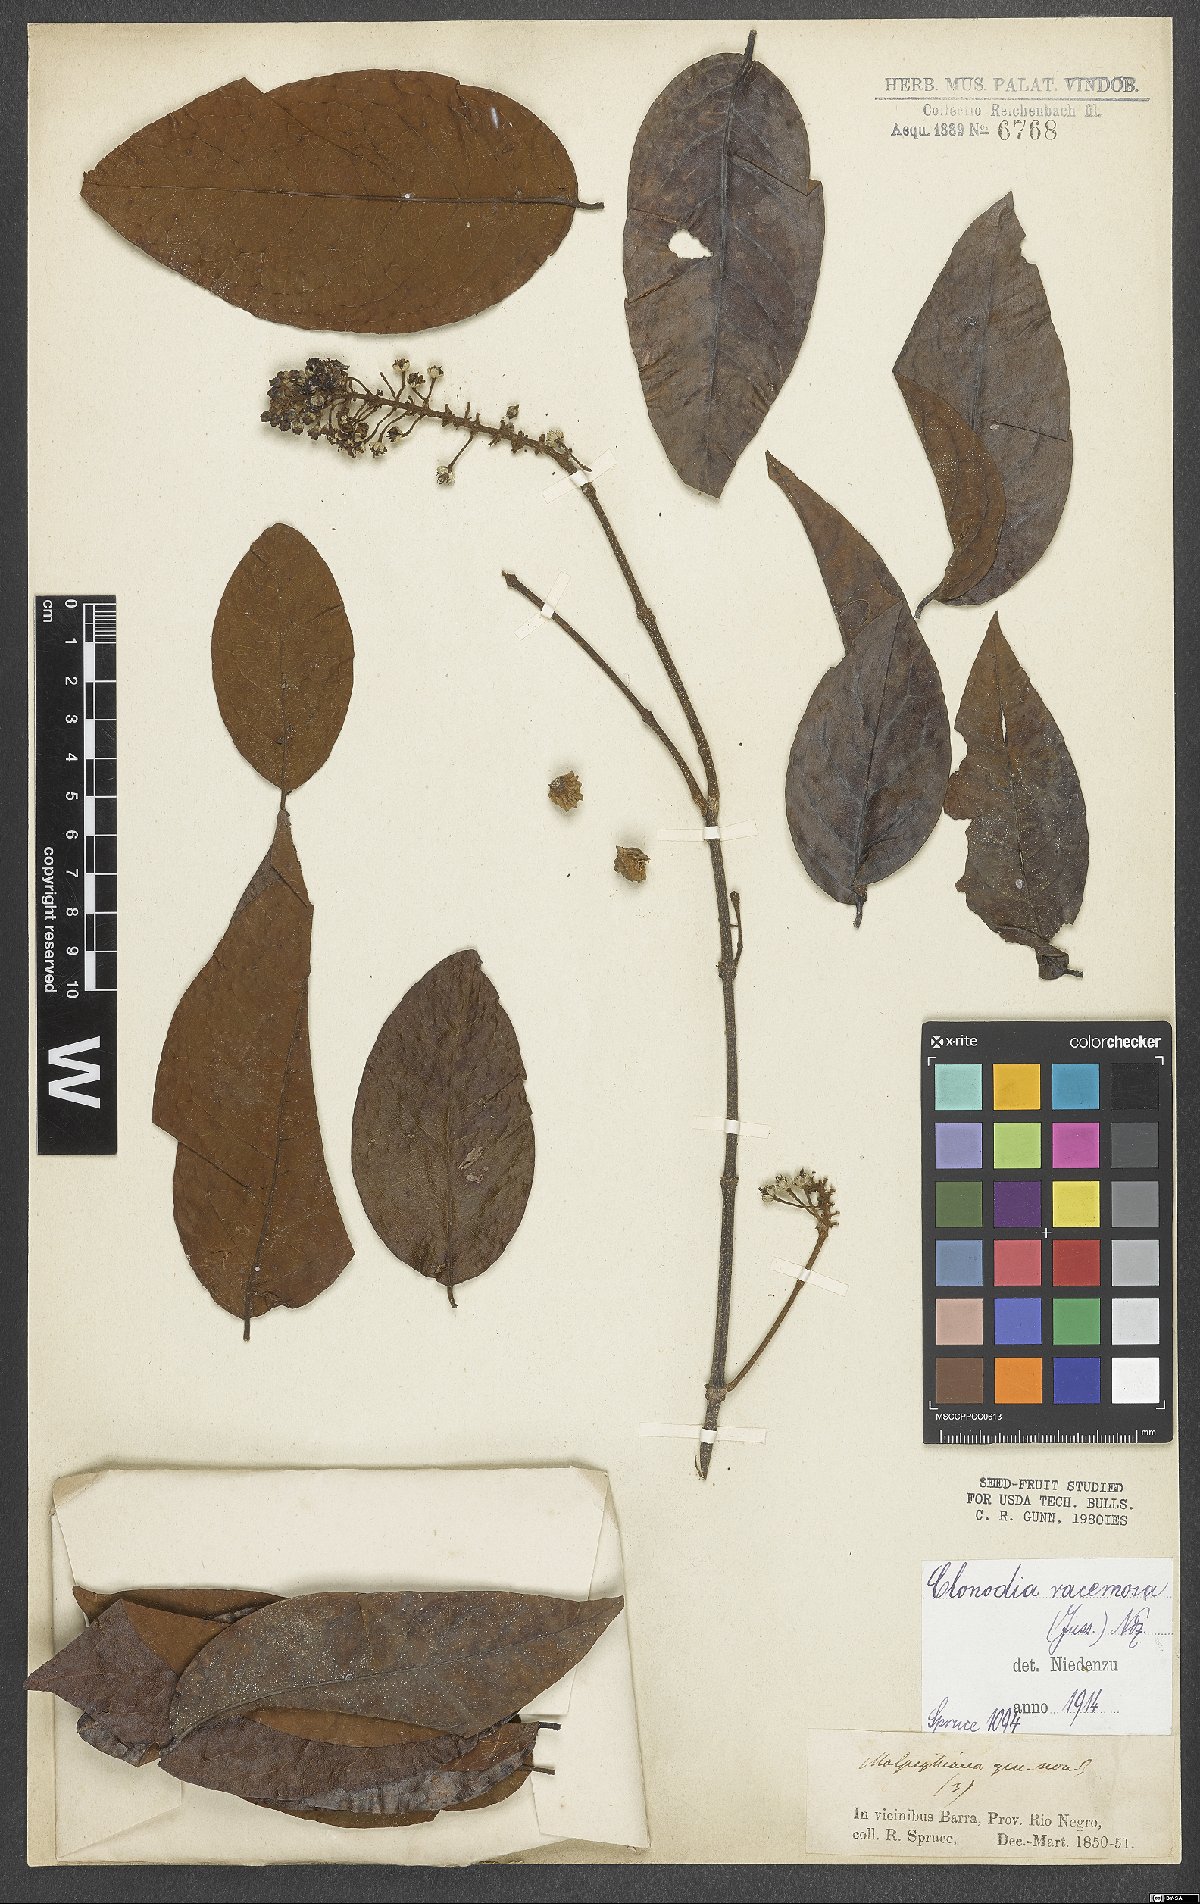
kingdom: Plantae
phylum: Tracheophyta
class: Magnoliopsida
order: Malpighiales
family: Malpighiaceae
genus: Heteropterys
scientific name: Heteropterys racemosa
